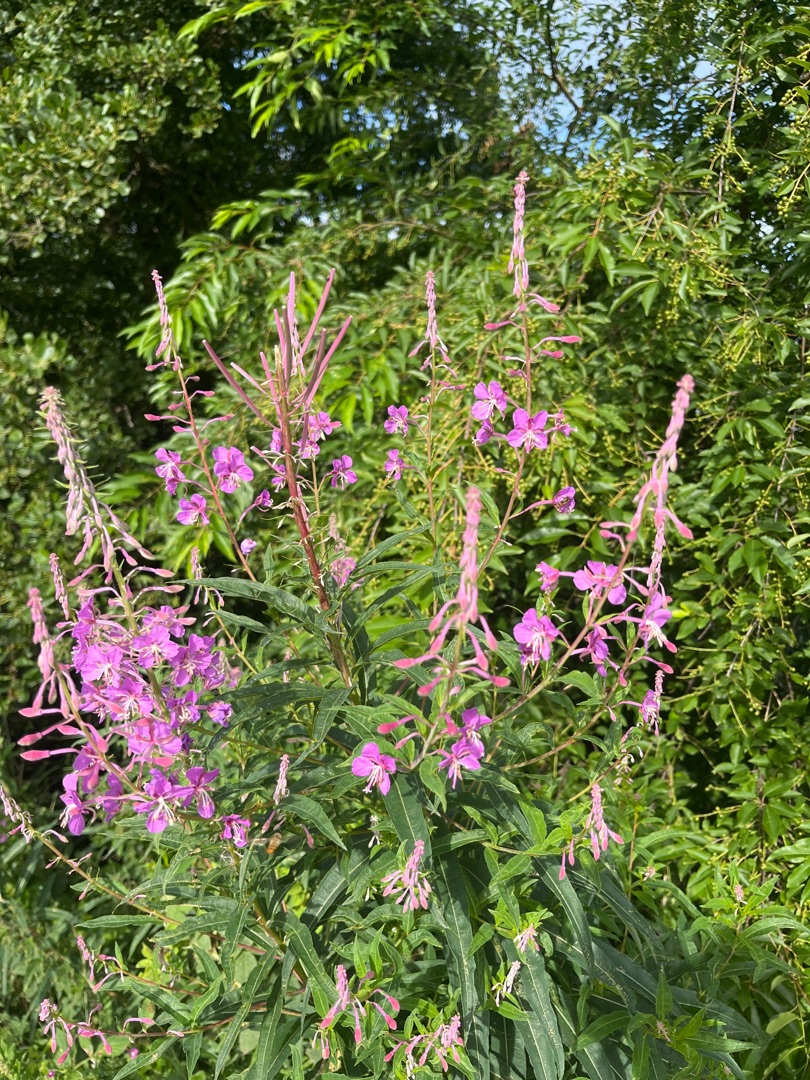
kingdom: Plantae
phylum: Tracheophyta
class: Magnoliopsida
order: Myrtales
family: Onagraceae
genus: Chamaenerion
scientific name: Chamaenerion angustifolium
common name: Gederams
